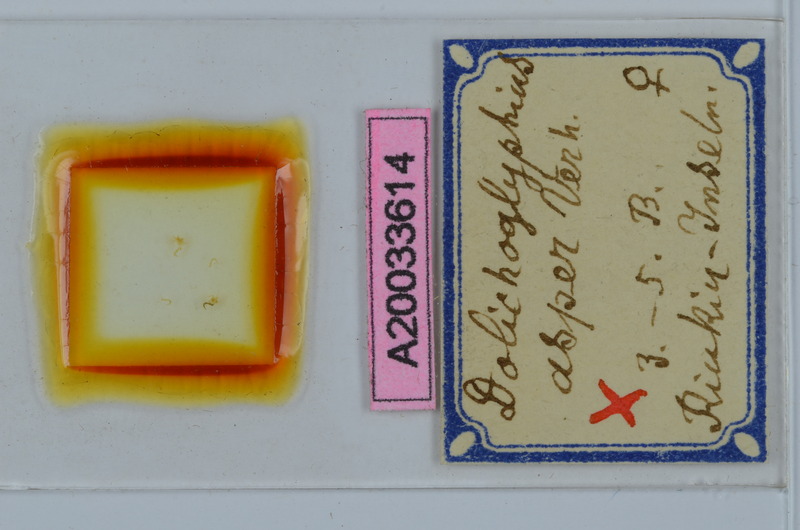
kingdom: Animalia
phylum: Arthropoda
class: Diplopoda
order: Spirostreptida
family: Cambalopsidae
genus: Dolichoglyphius
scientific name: Dolichoglyphius asper
